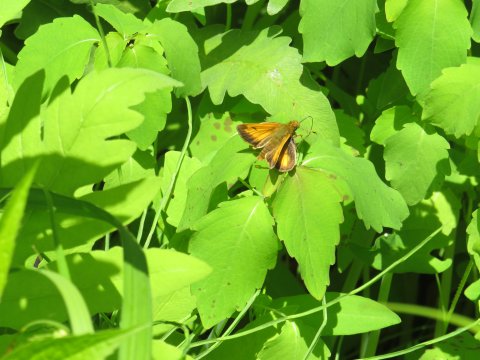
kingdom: Animalia
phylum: Arthropoda
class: Insecta
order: Lepidoptera
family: Hesperiidae
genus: Lon
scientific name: Lon hobomok
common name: Hobomok Skipper
